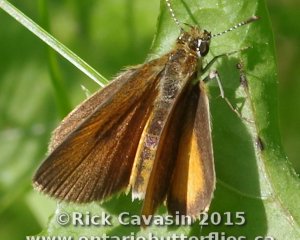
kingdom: Animalia
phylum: Arthropoda
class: Insecta
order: Lepidoptera
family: Hesperiidae
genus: Ancyloxypha
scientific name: Ancyloxypha numitor
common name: Least Skipper
